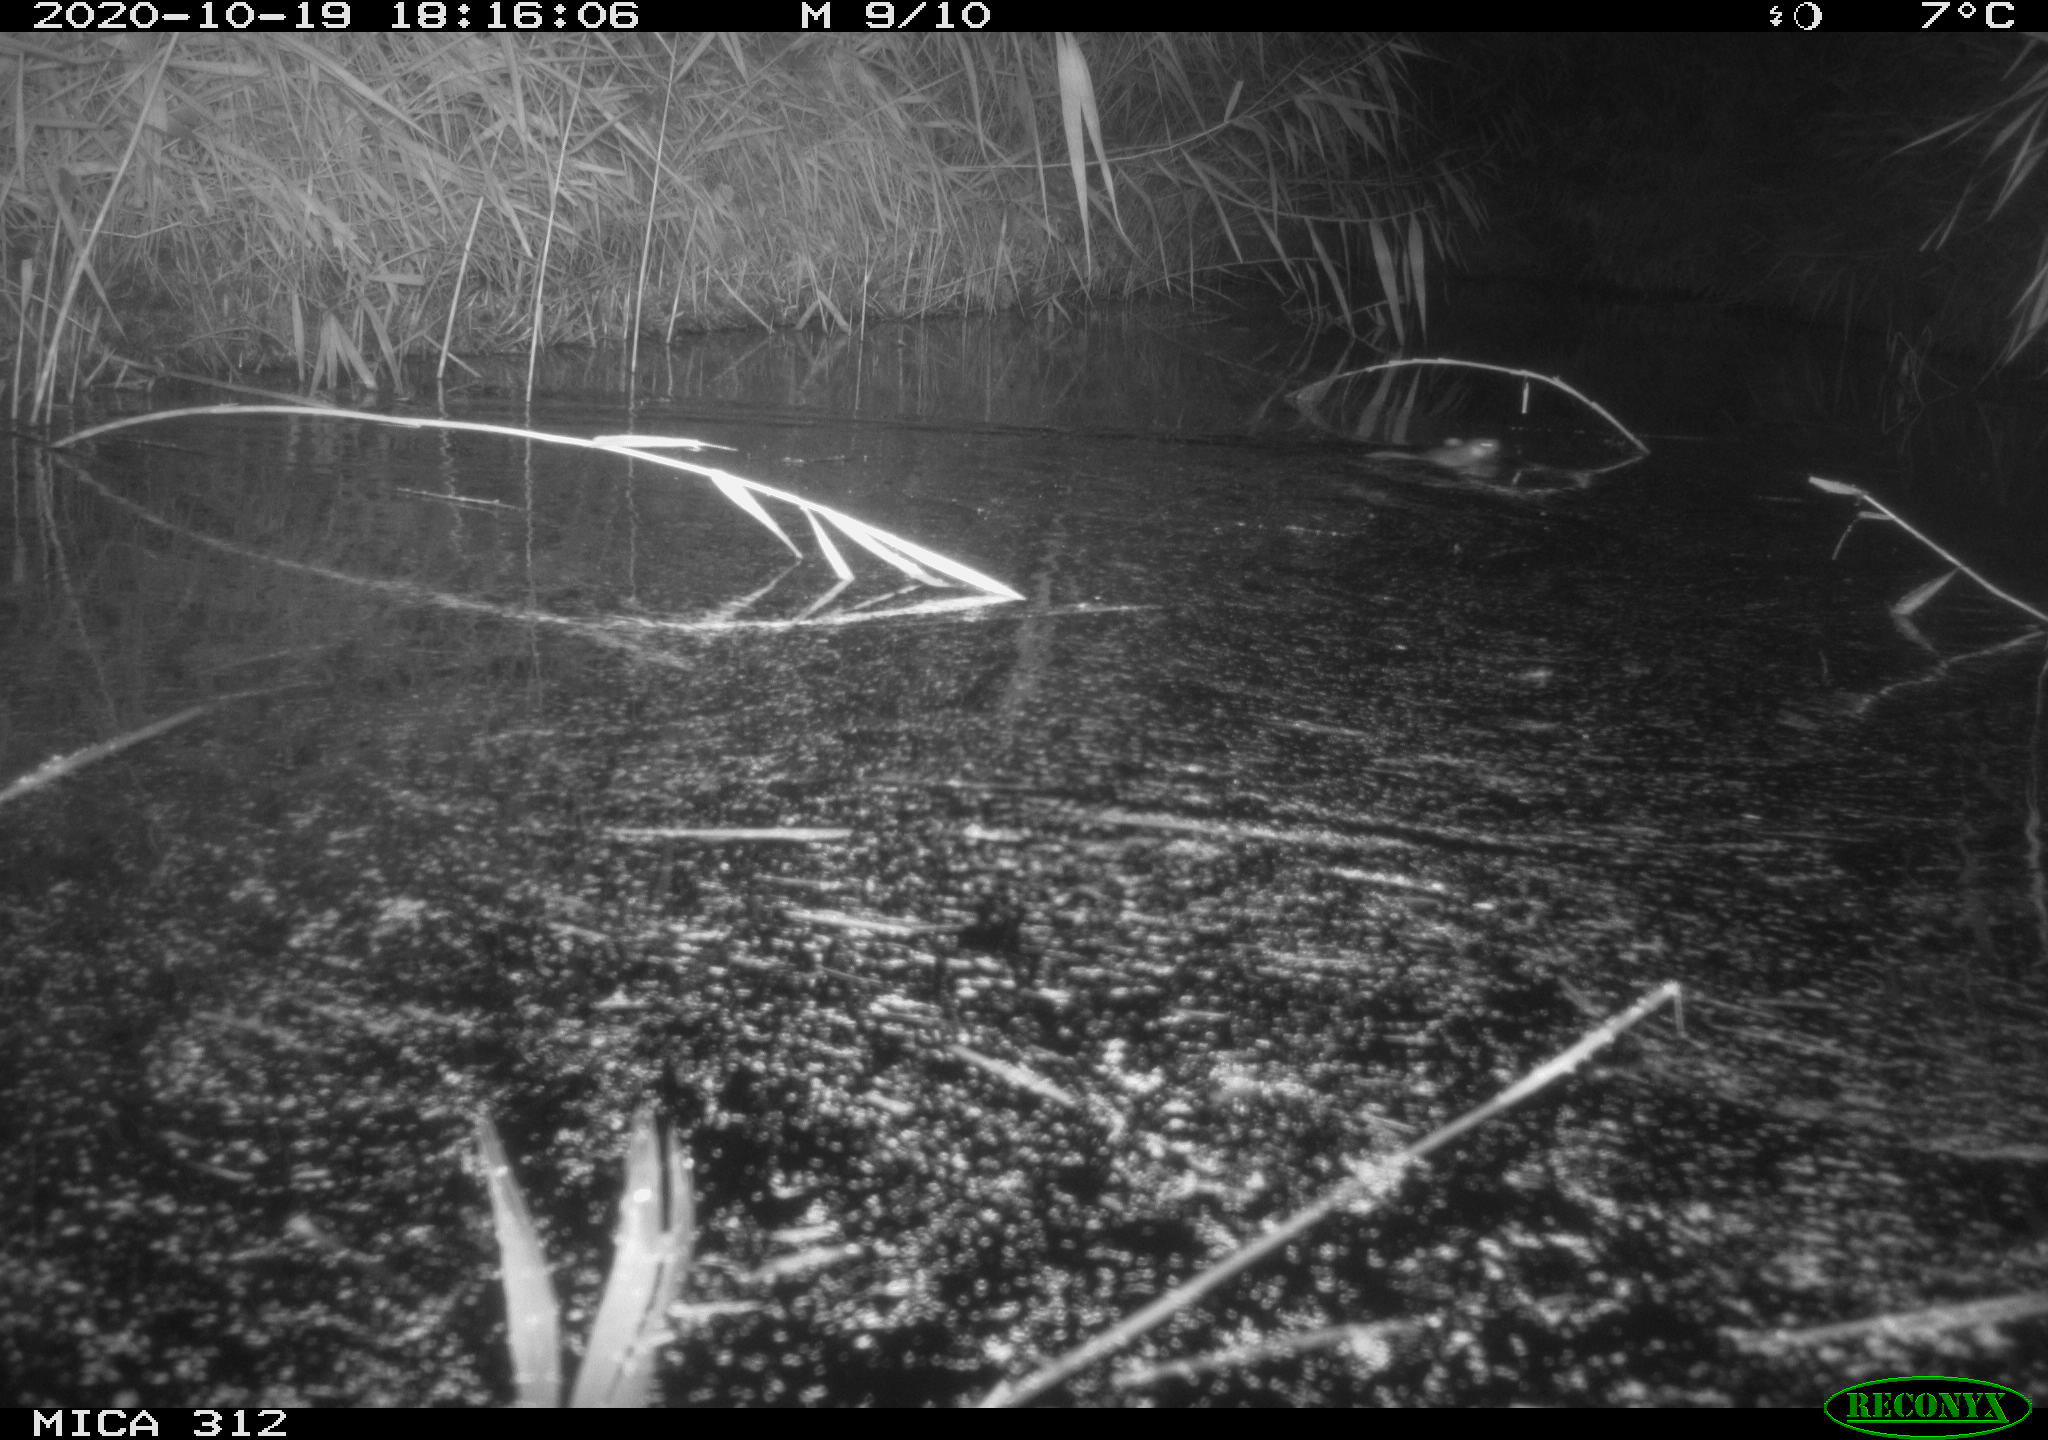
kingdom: Animalia
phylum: Chordata
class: Mammalia
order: Rodentia
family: Muridae
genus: Rattus
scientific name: Rattus norvegicus
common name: Brown rat
